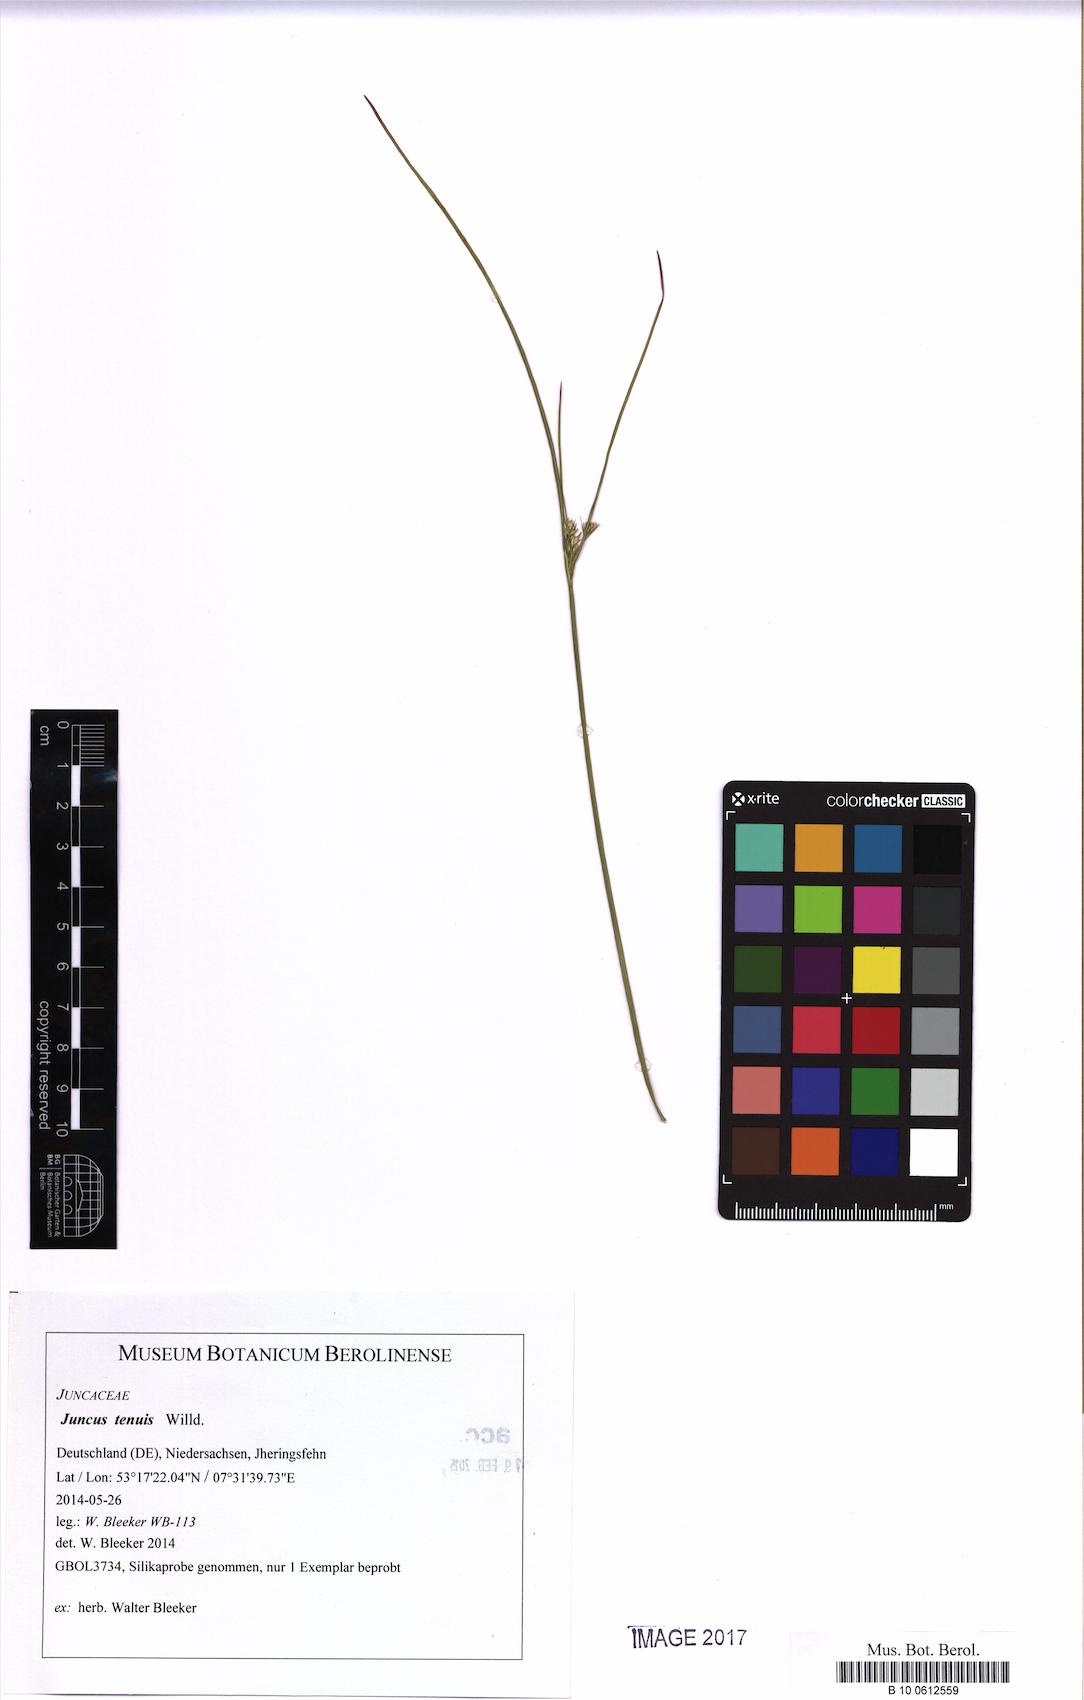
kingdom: Plantae
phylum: Tracheophyta
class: Liliopsida
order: Poales
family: Juncaceae
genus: Juncus
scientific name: Juncus tenuis
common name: Slender rush
